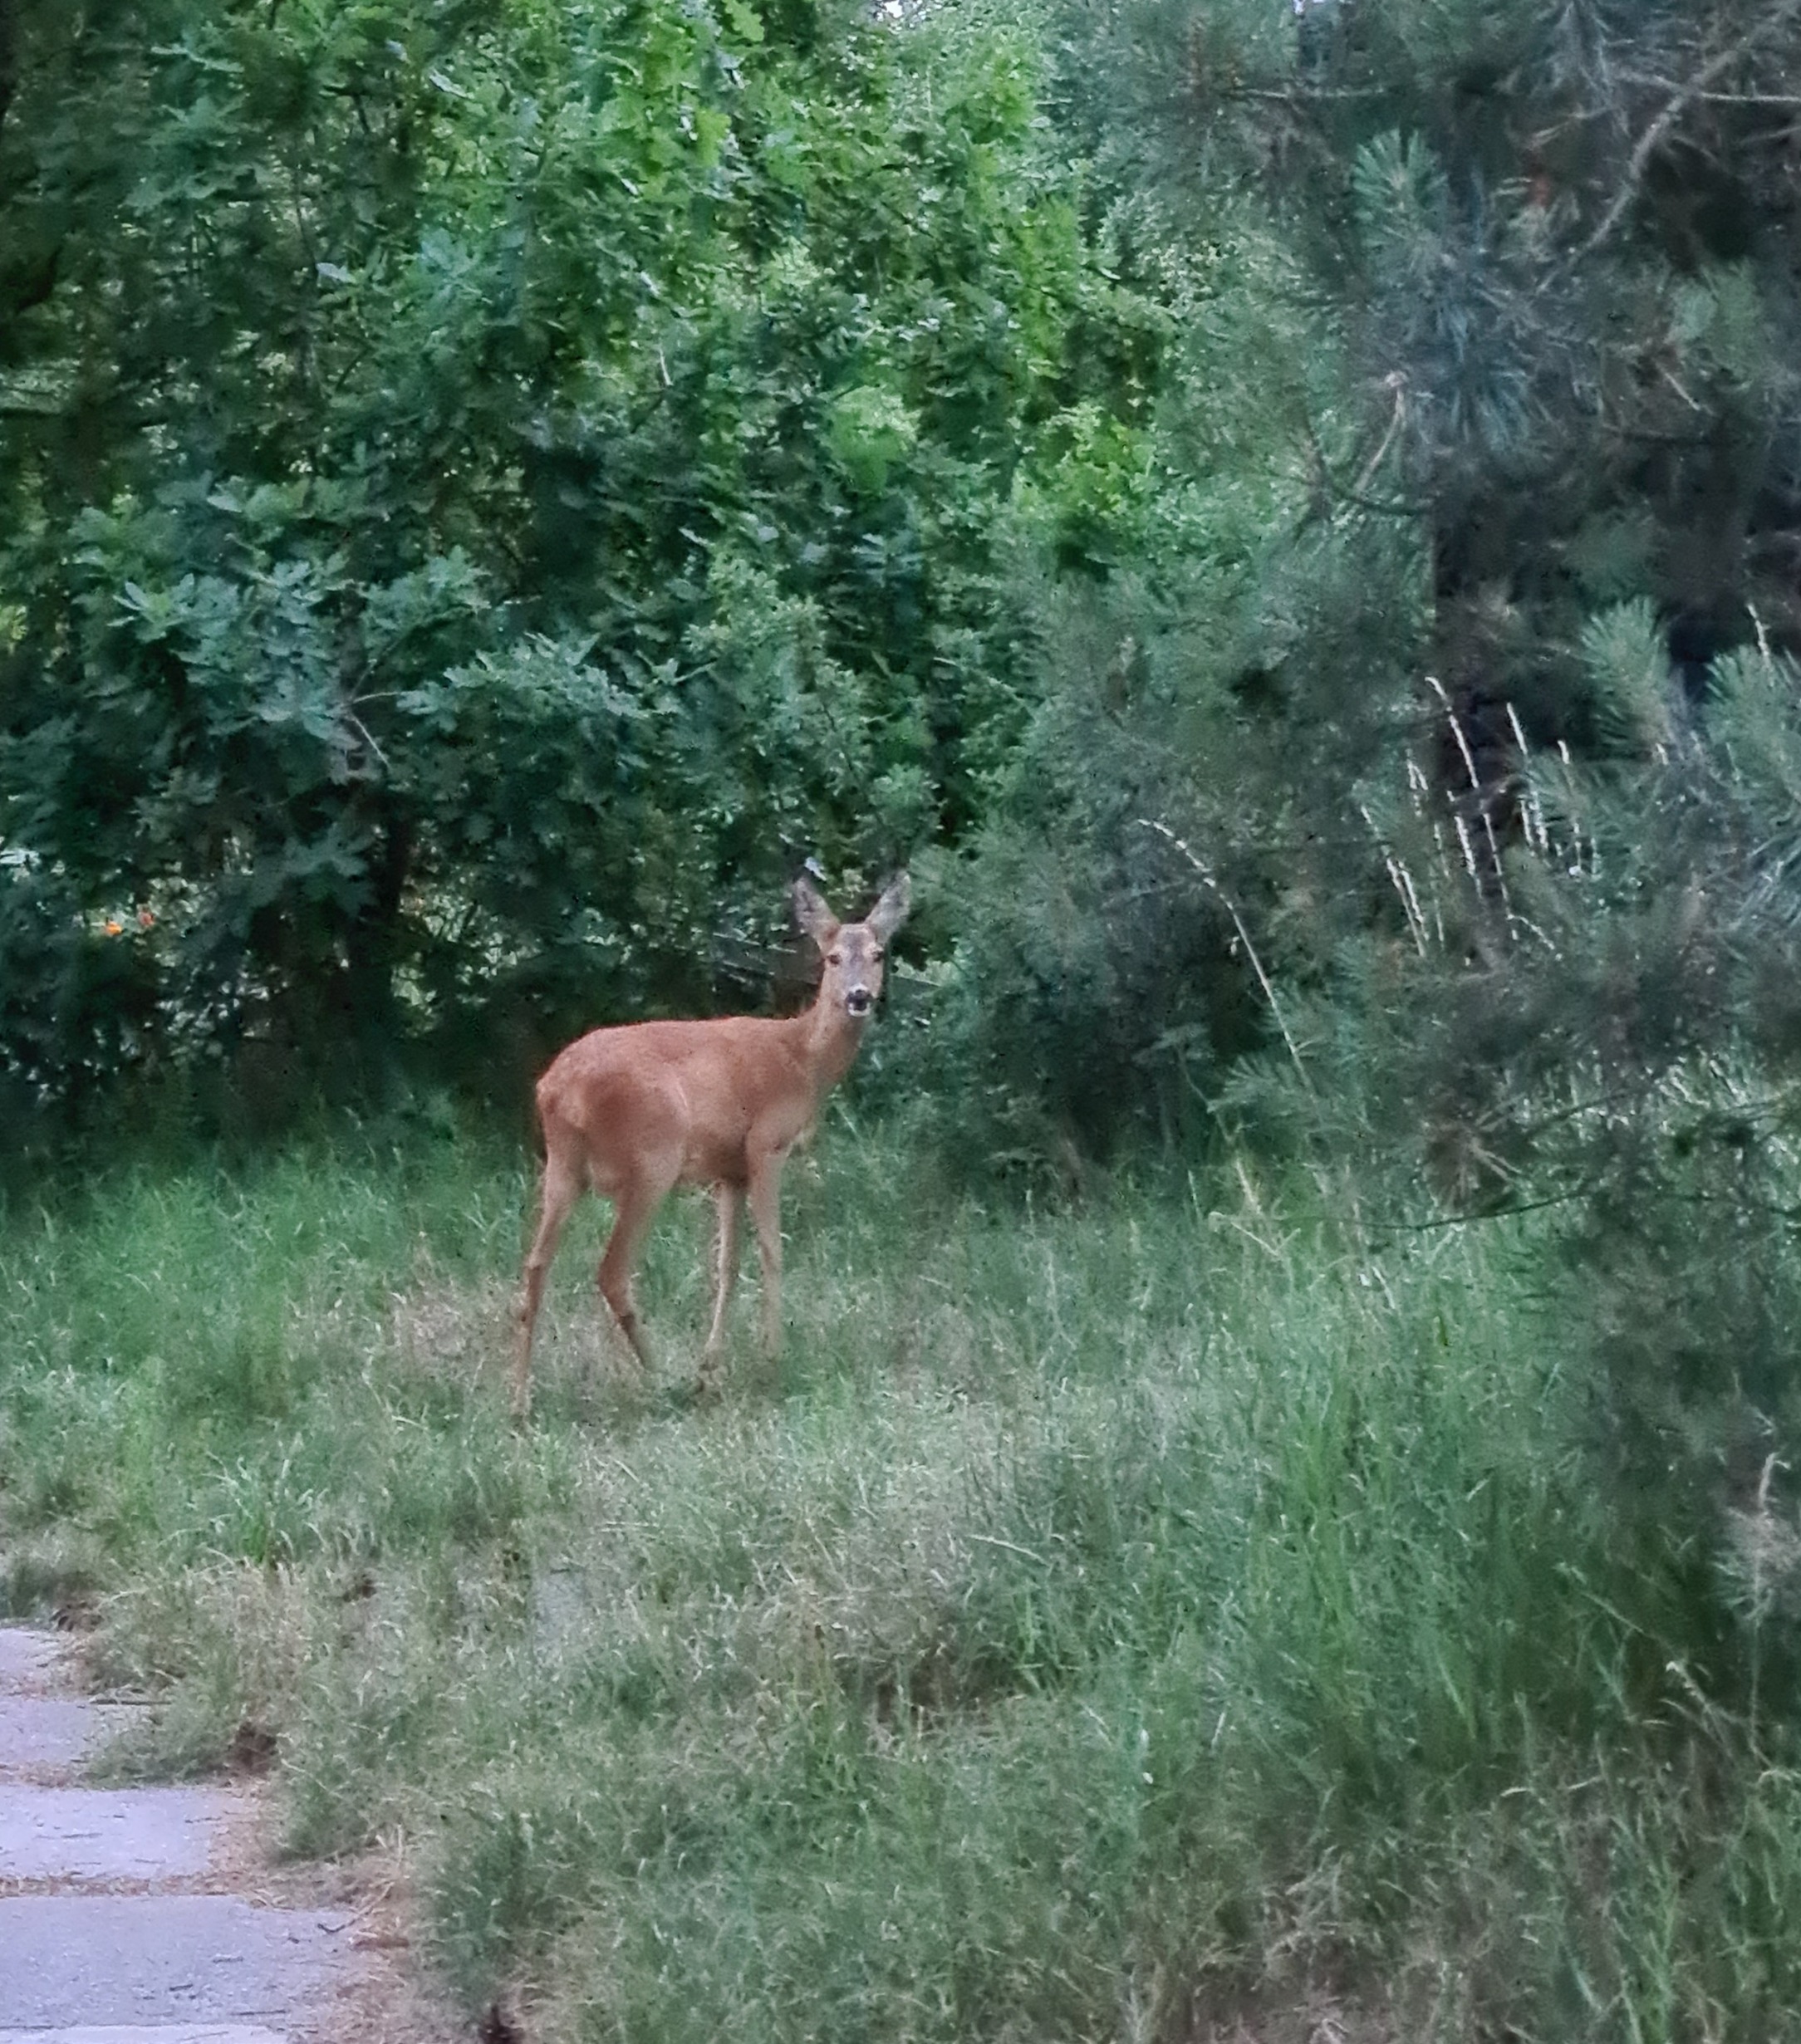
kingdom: Animalia
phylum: Chordata
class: Mammalia
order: Artiodactyla
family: Cervidae
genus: Capreolus
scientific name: Capreolus capreolus
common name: Rådyr
